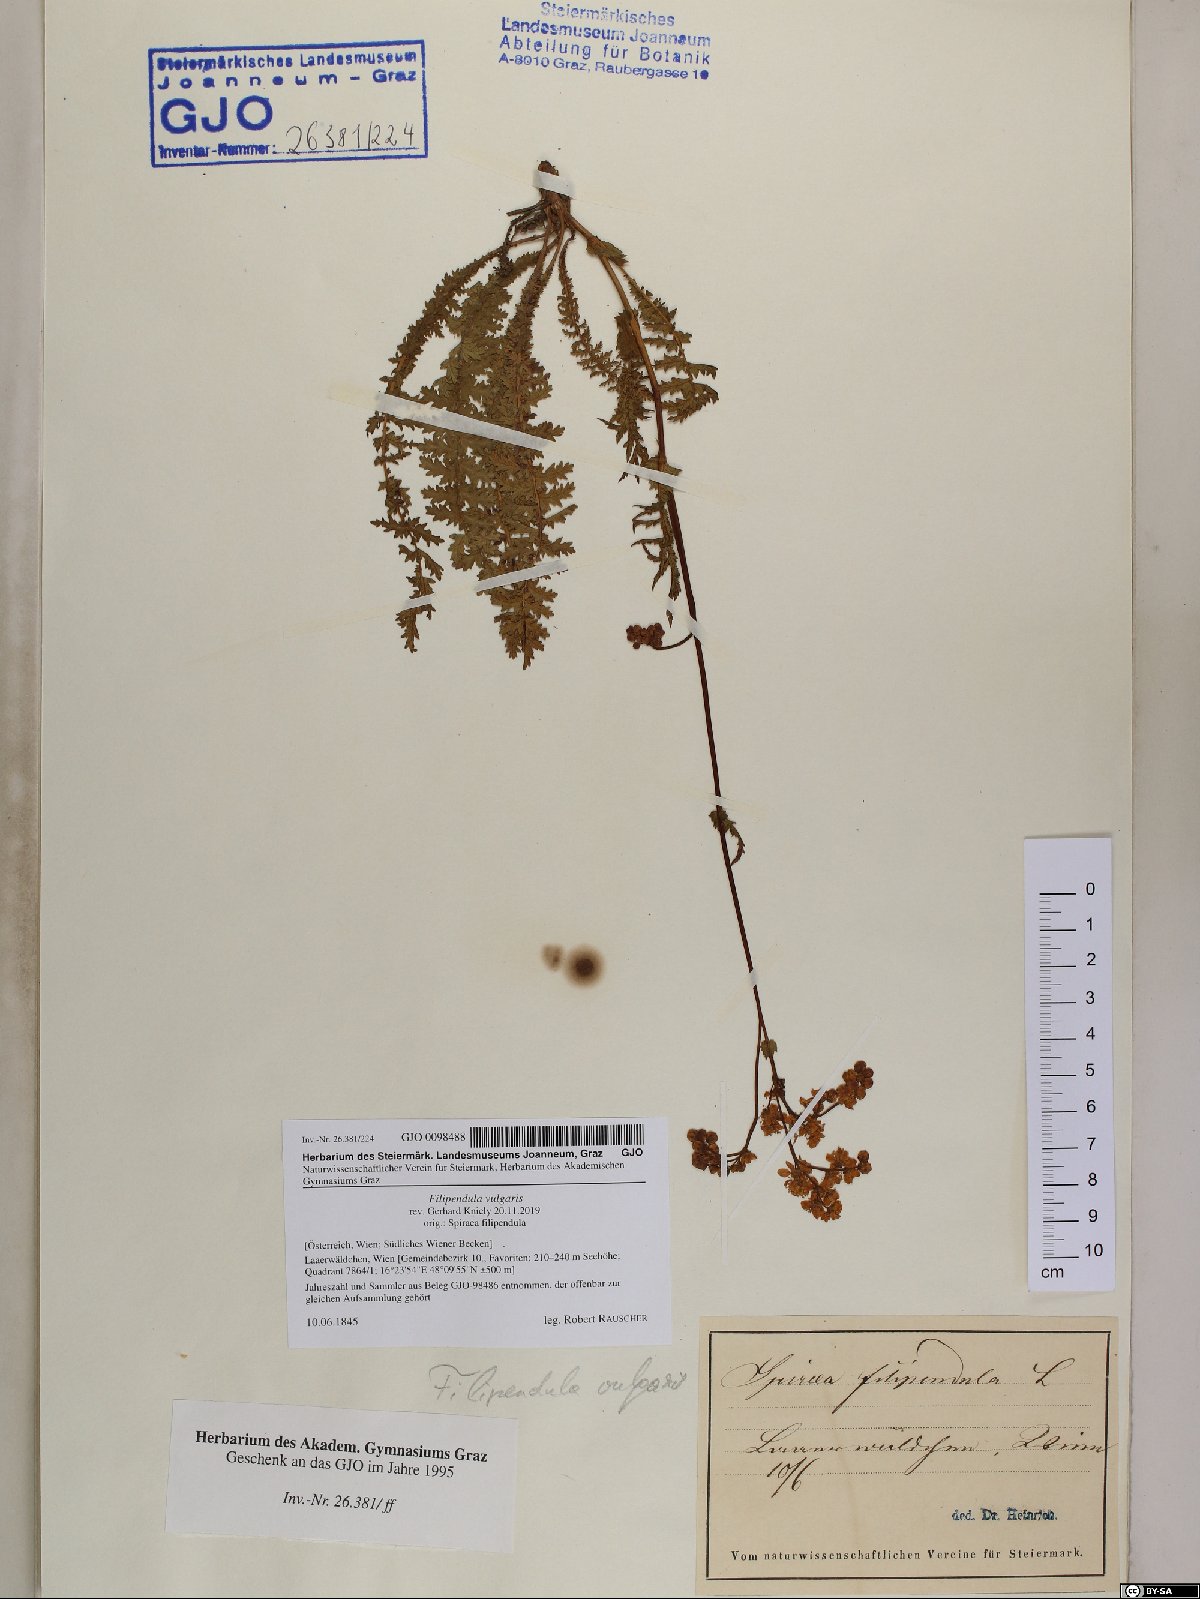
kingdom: Plantae
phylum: Tracheophyta
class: Magnoliopsida
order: Rosales
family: Rosaceae
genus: Filipendula
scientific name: Filipendula vulgaris
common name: Dropwort
